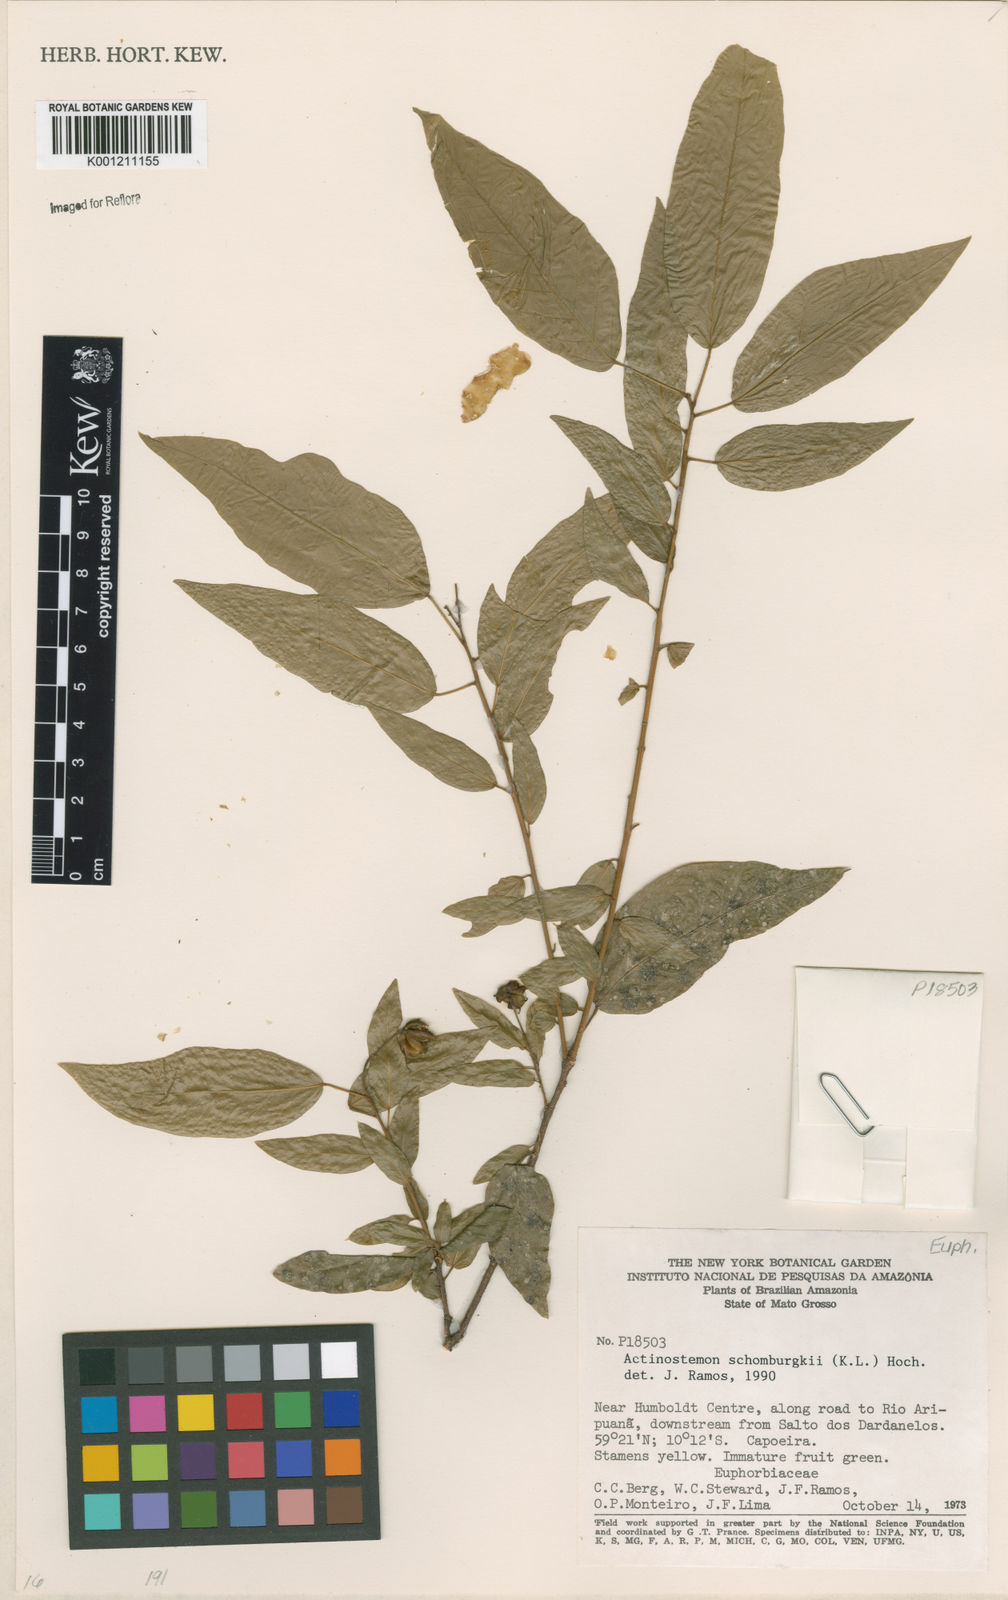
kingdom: Plantae
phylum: Tracheophyta
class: Magnoliopsida
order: Malpighiales
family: Euphorbiaceae
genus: Actinostemon
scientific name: Actinostemon klotzschii
